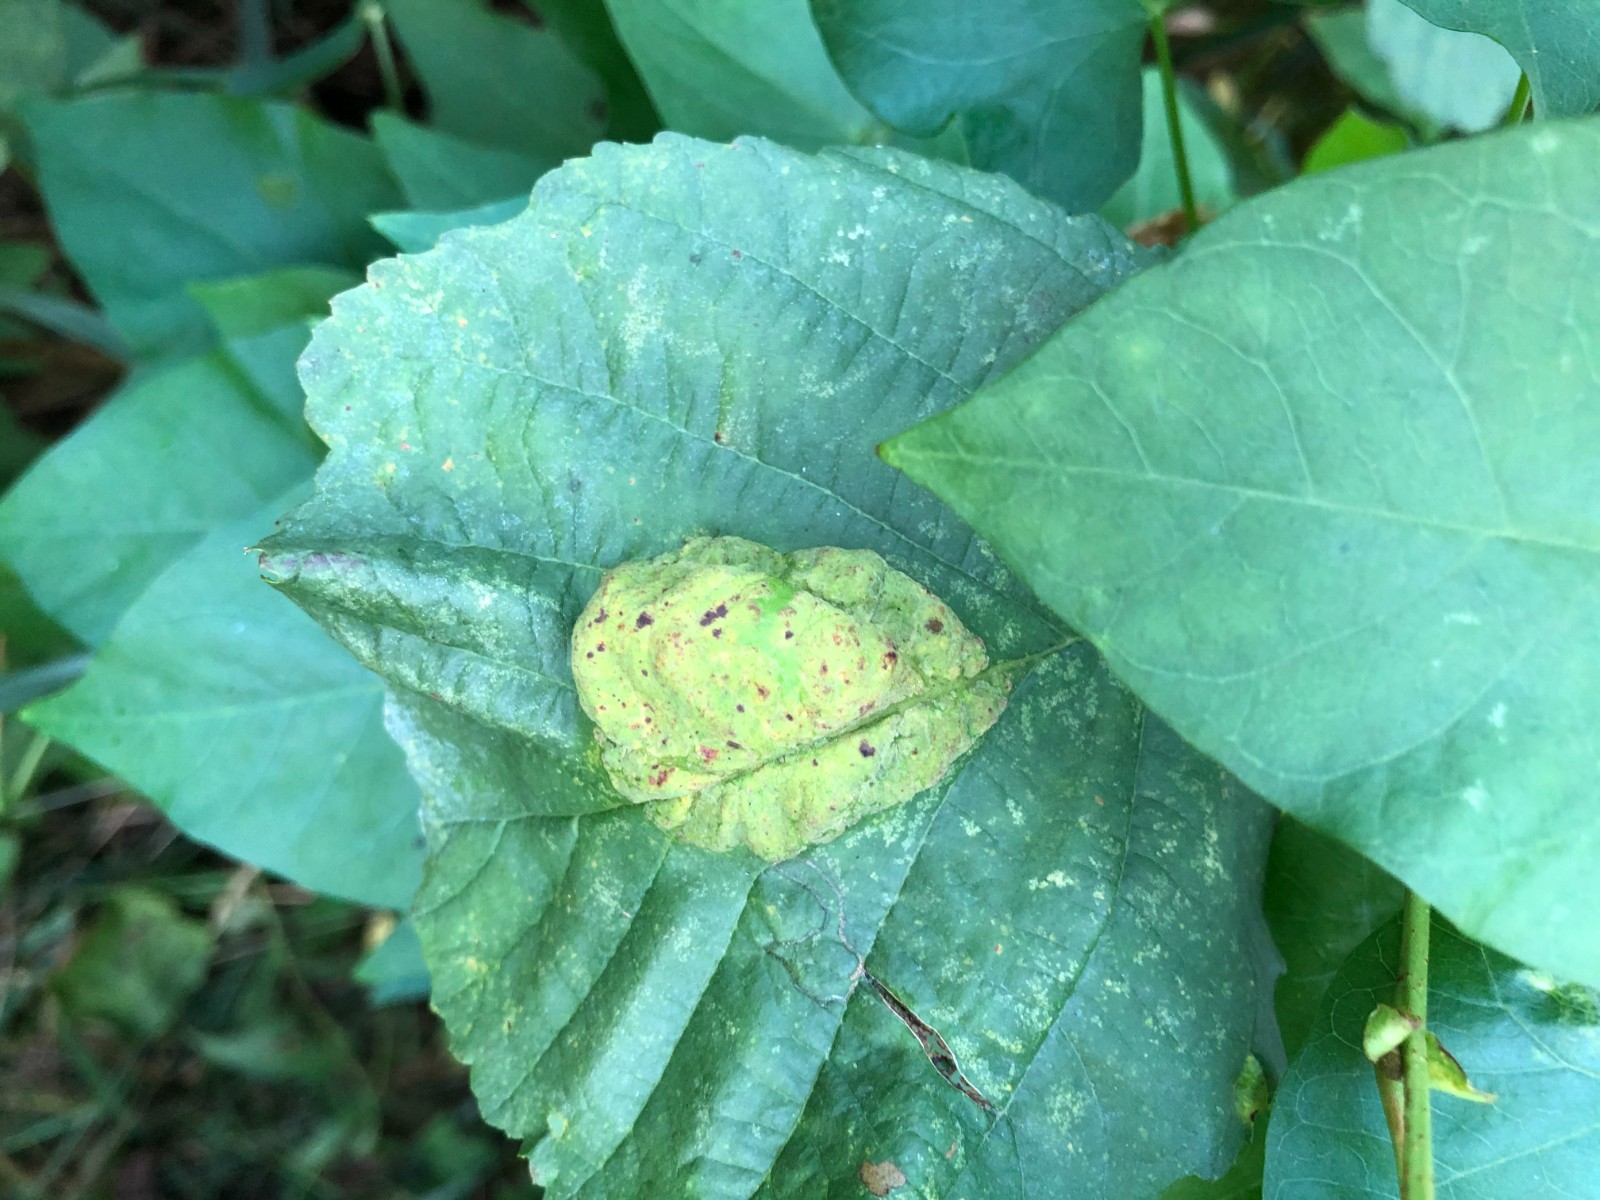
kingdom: Fungi
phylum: Ascomycota
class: Taphrinomycetes
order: Taphrinales
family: Taphrinaceae
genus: Taphrina
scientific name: Taphrina tosquinetii
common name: Alder wrinkle
